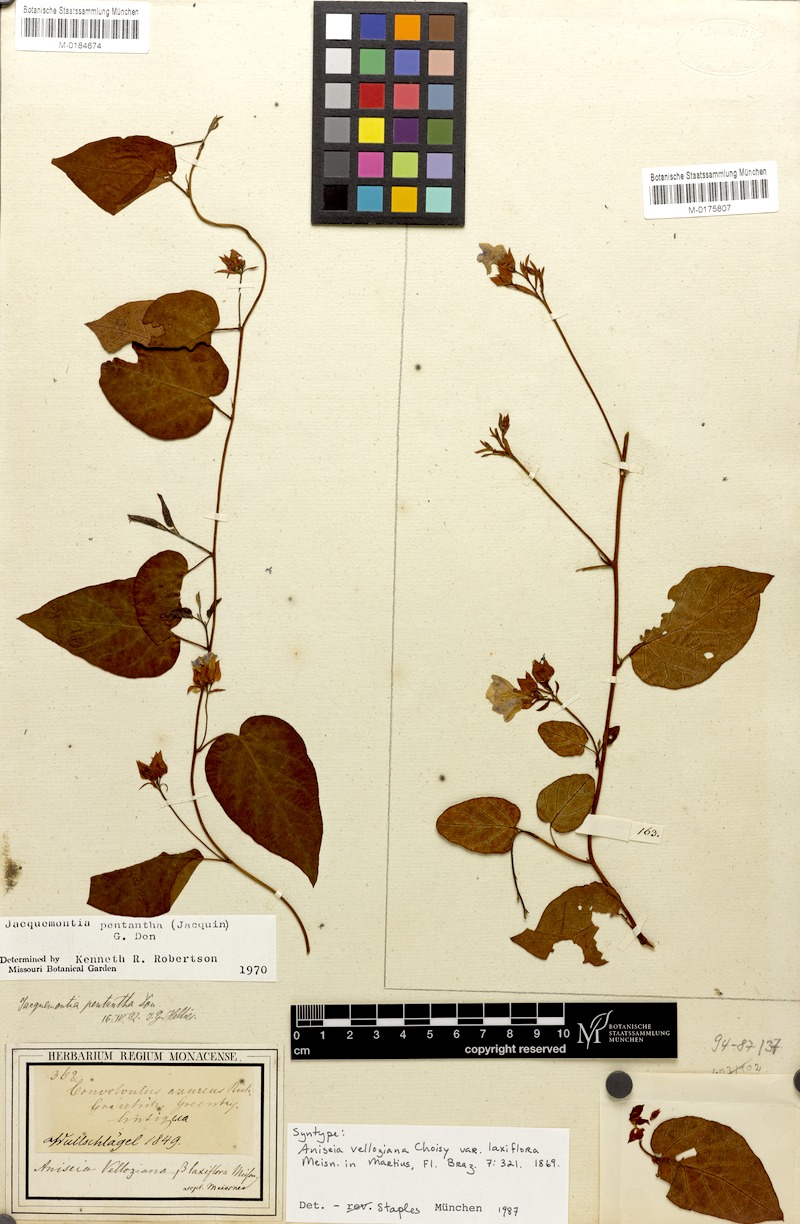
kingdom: Plantae
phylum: Tracheophyta
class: Magnoliopsida
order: Solanales
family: Convolvulaceae
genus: Jacquemontia
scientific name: Jacquemontia pentanthos
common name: Skyblue clustervine
